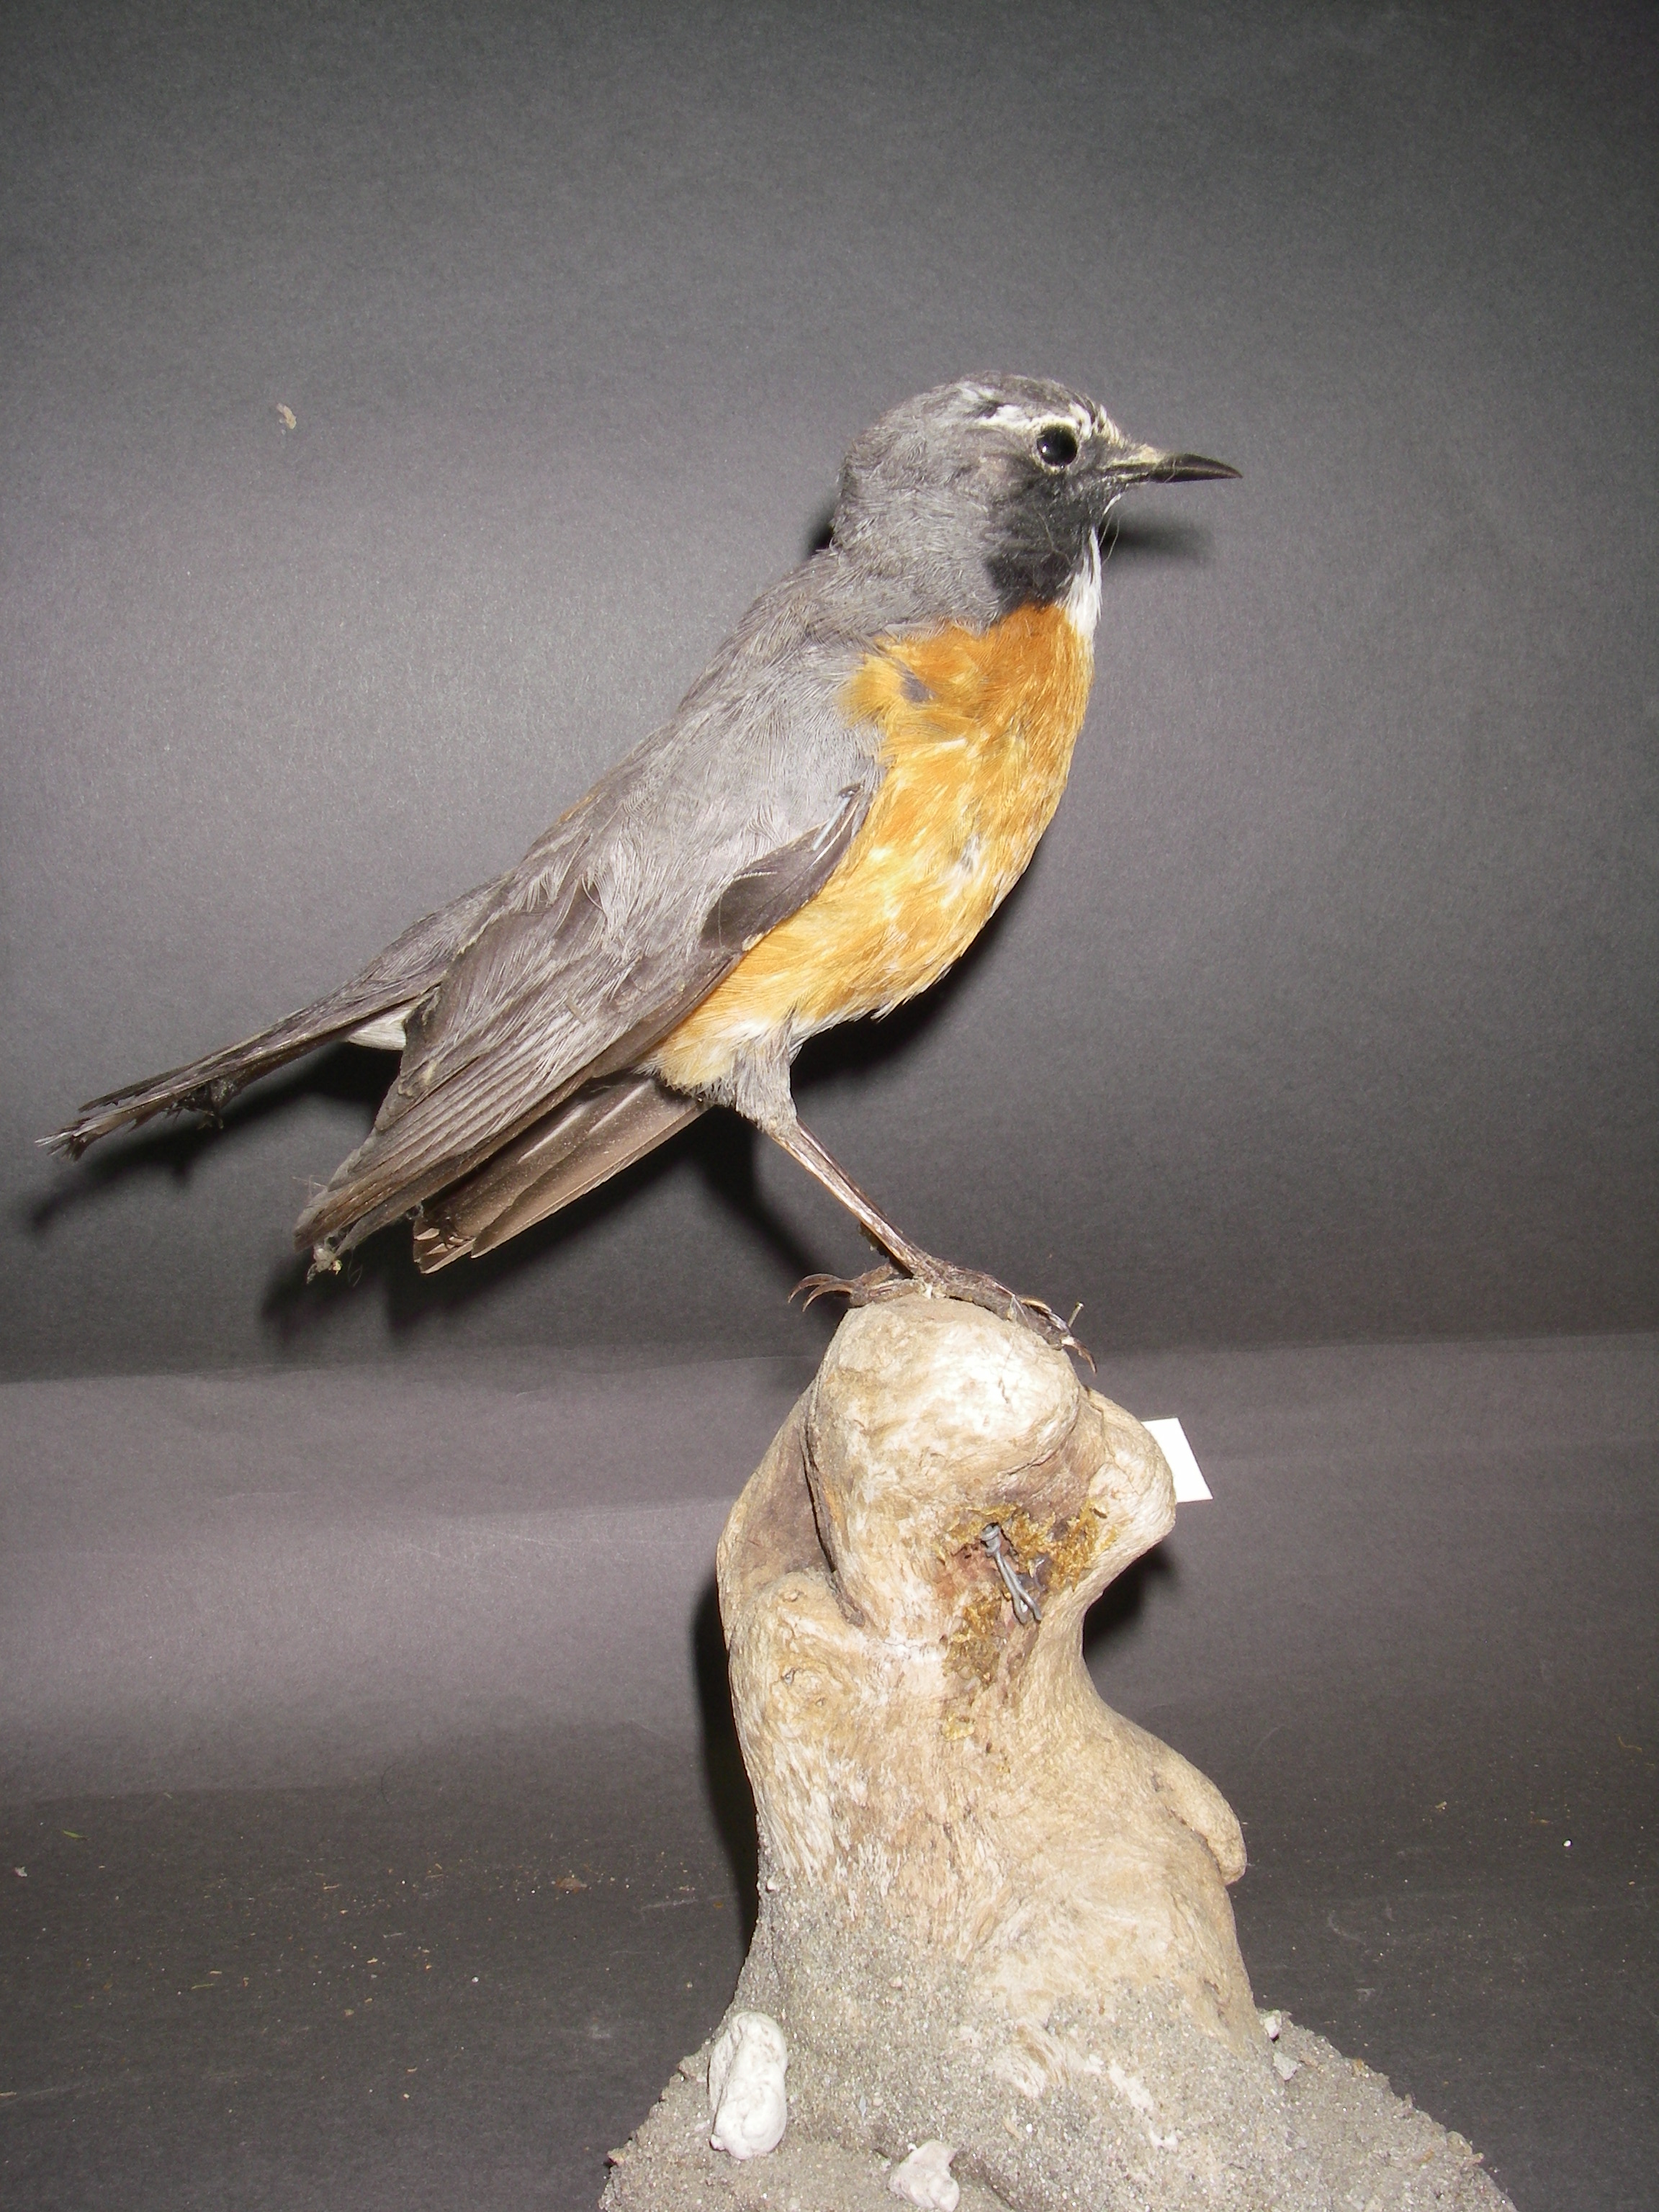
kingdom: Animalia
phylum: Chordata
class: Aves
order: Passeriformes
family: Muscicapidae
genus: Irania
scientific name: Irania gutturalis
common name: White-throated robin
